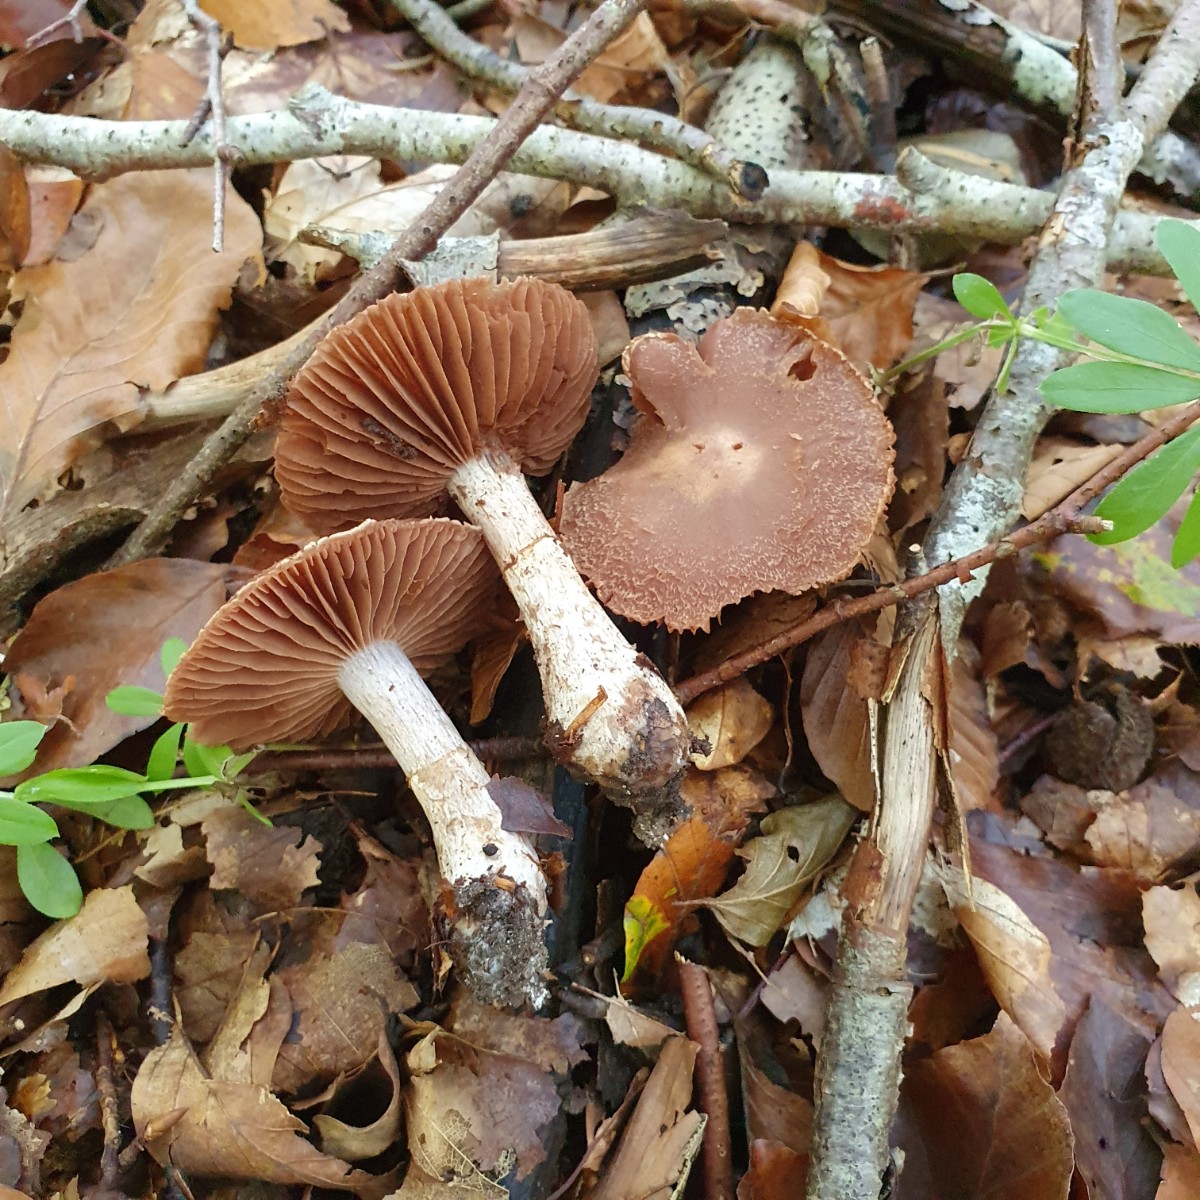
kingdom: Fungi
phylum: Basidiomycota
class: Agaricomycetes
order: Agaricales
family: Cortinariaceae
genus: Cortinarius
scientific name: Cortinarius
